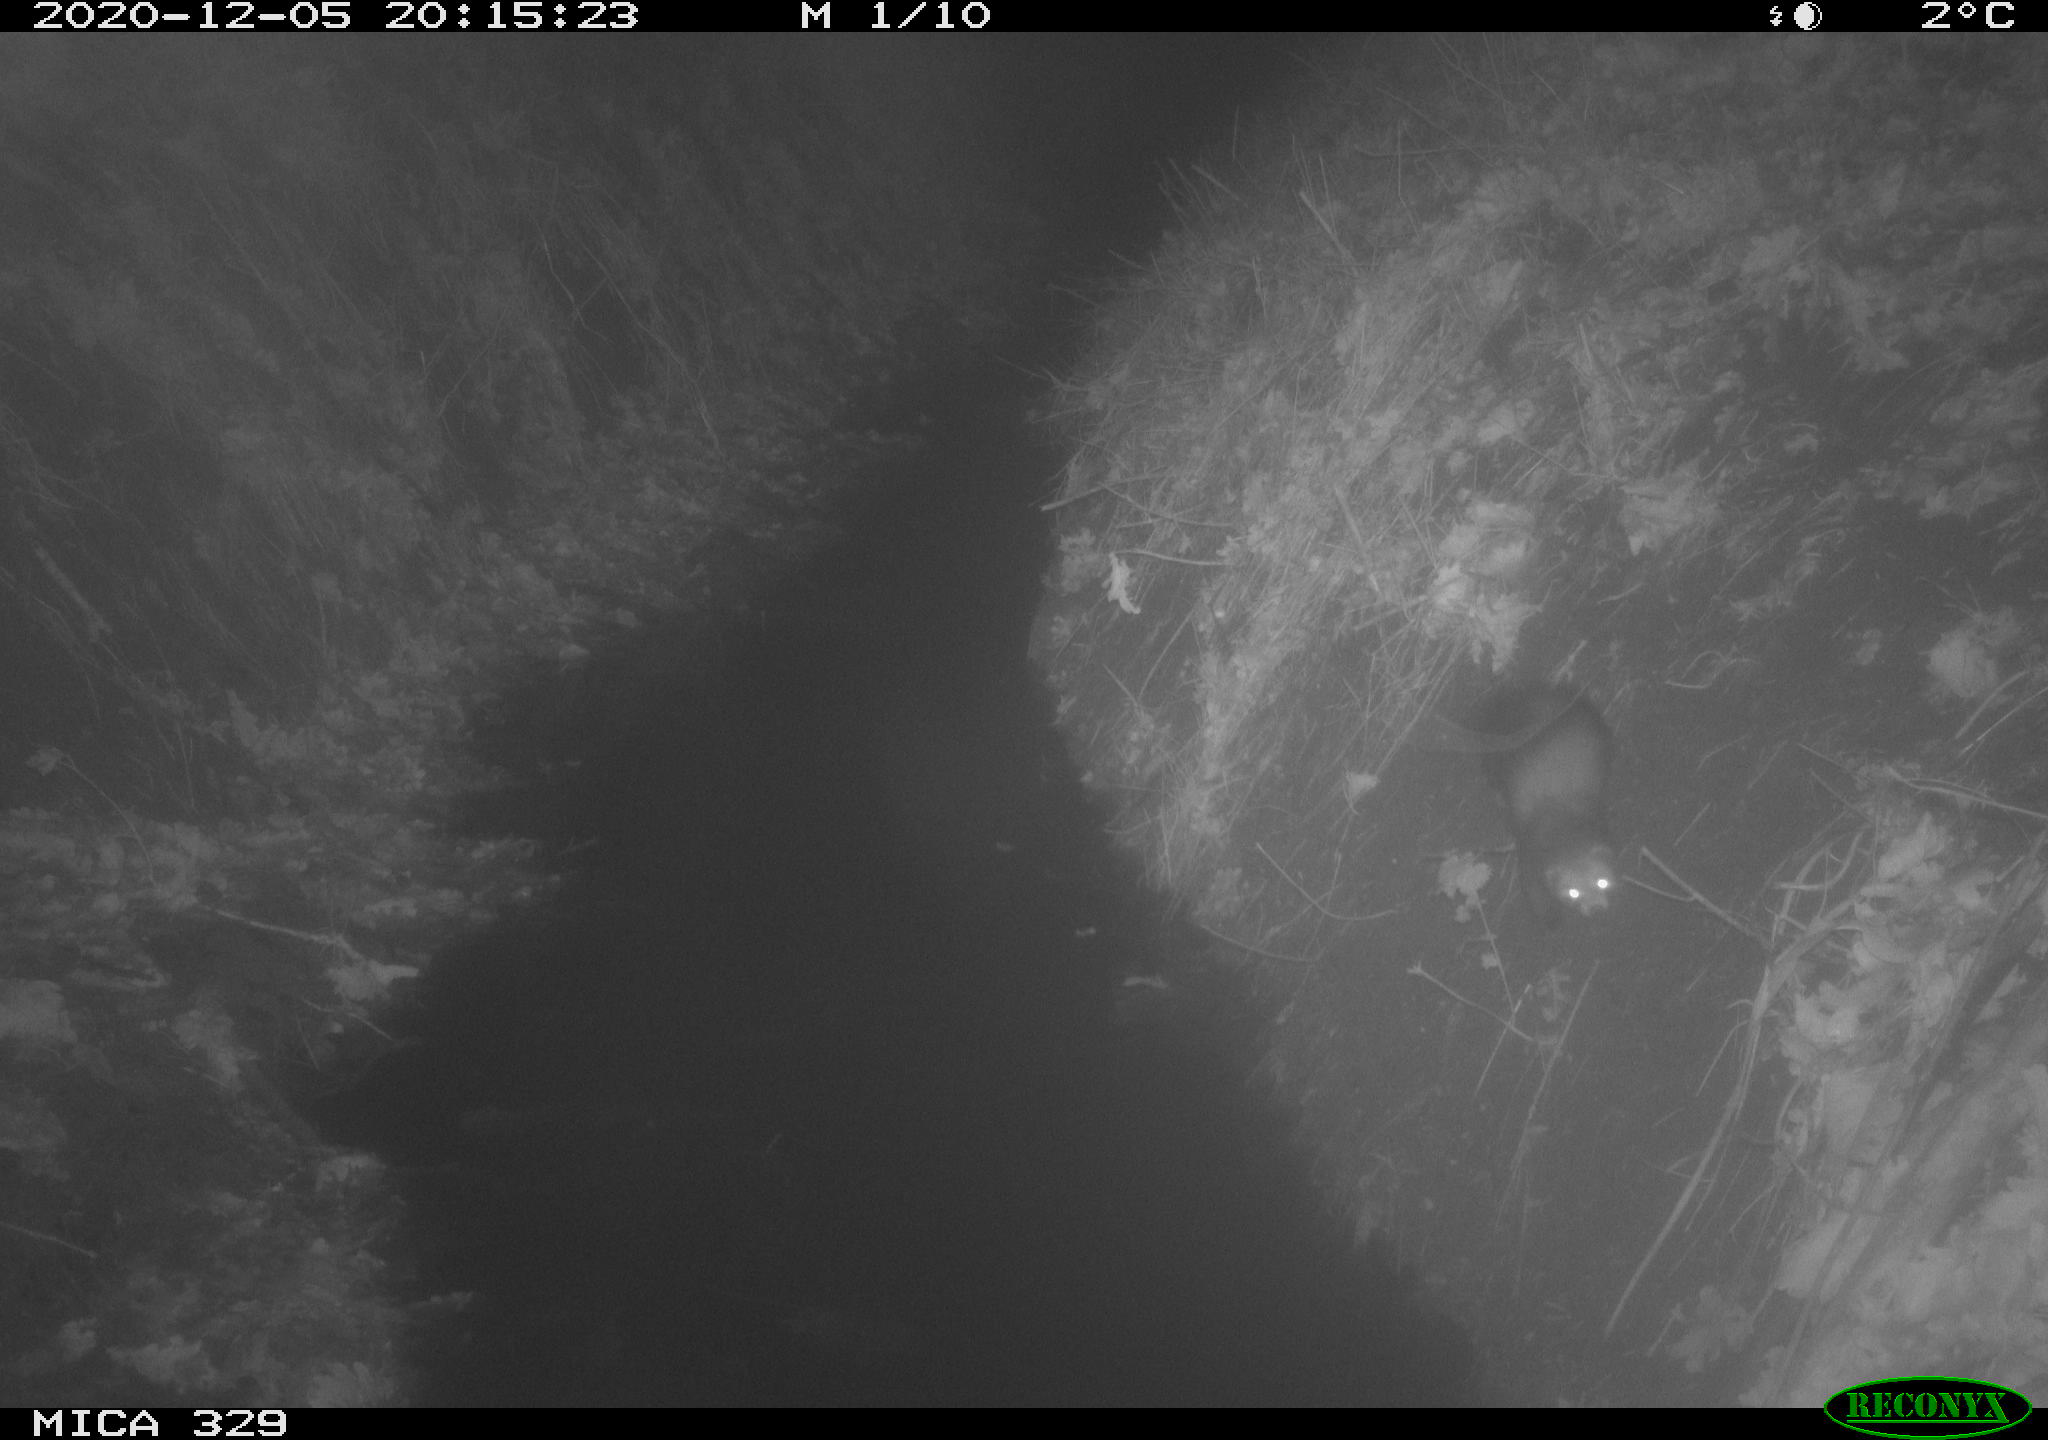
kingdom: Animalia
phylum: Chordata
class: Mammalia
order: Carnivora
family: Mustelidae
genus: Martes
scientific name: Martes foina
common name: Beech marten
